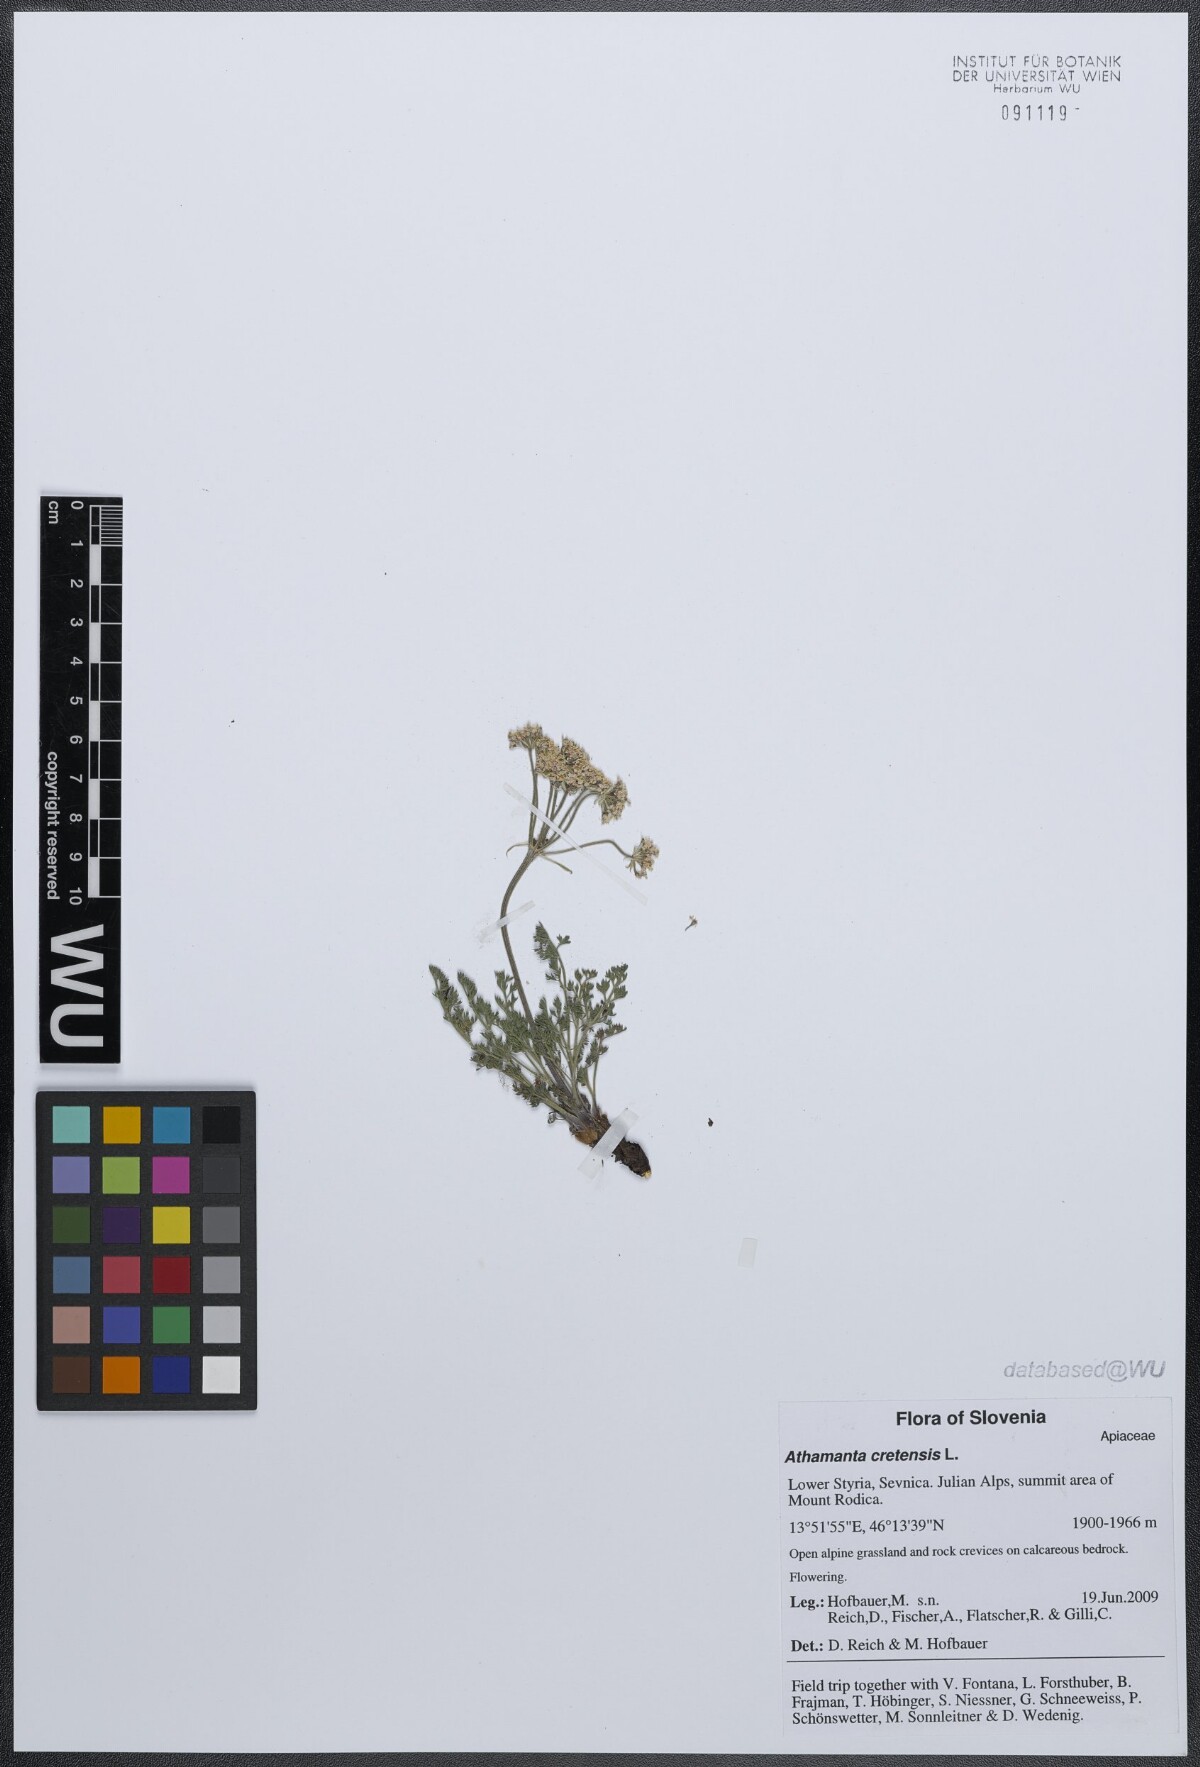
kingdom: Plantae
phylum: Tracheophyta
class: Magnoliopsida
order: Apiales
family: Apiaceae
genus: Athamanta
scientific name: Athamanta cretensis
